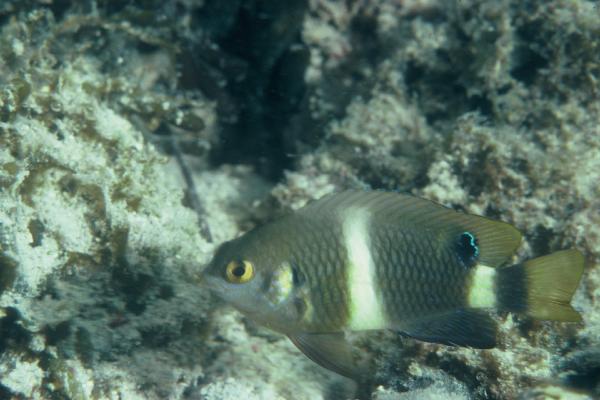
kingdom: Animalia
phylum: Chordata
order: Perciformes
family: Pomacentridae
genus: Chrysiptera
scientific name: Chrysiptera brownriggii
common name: Surge demoiselle
